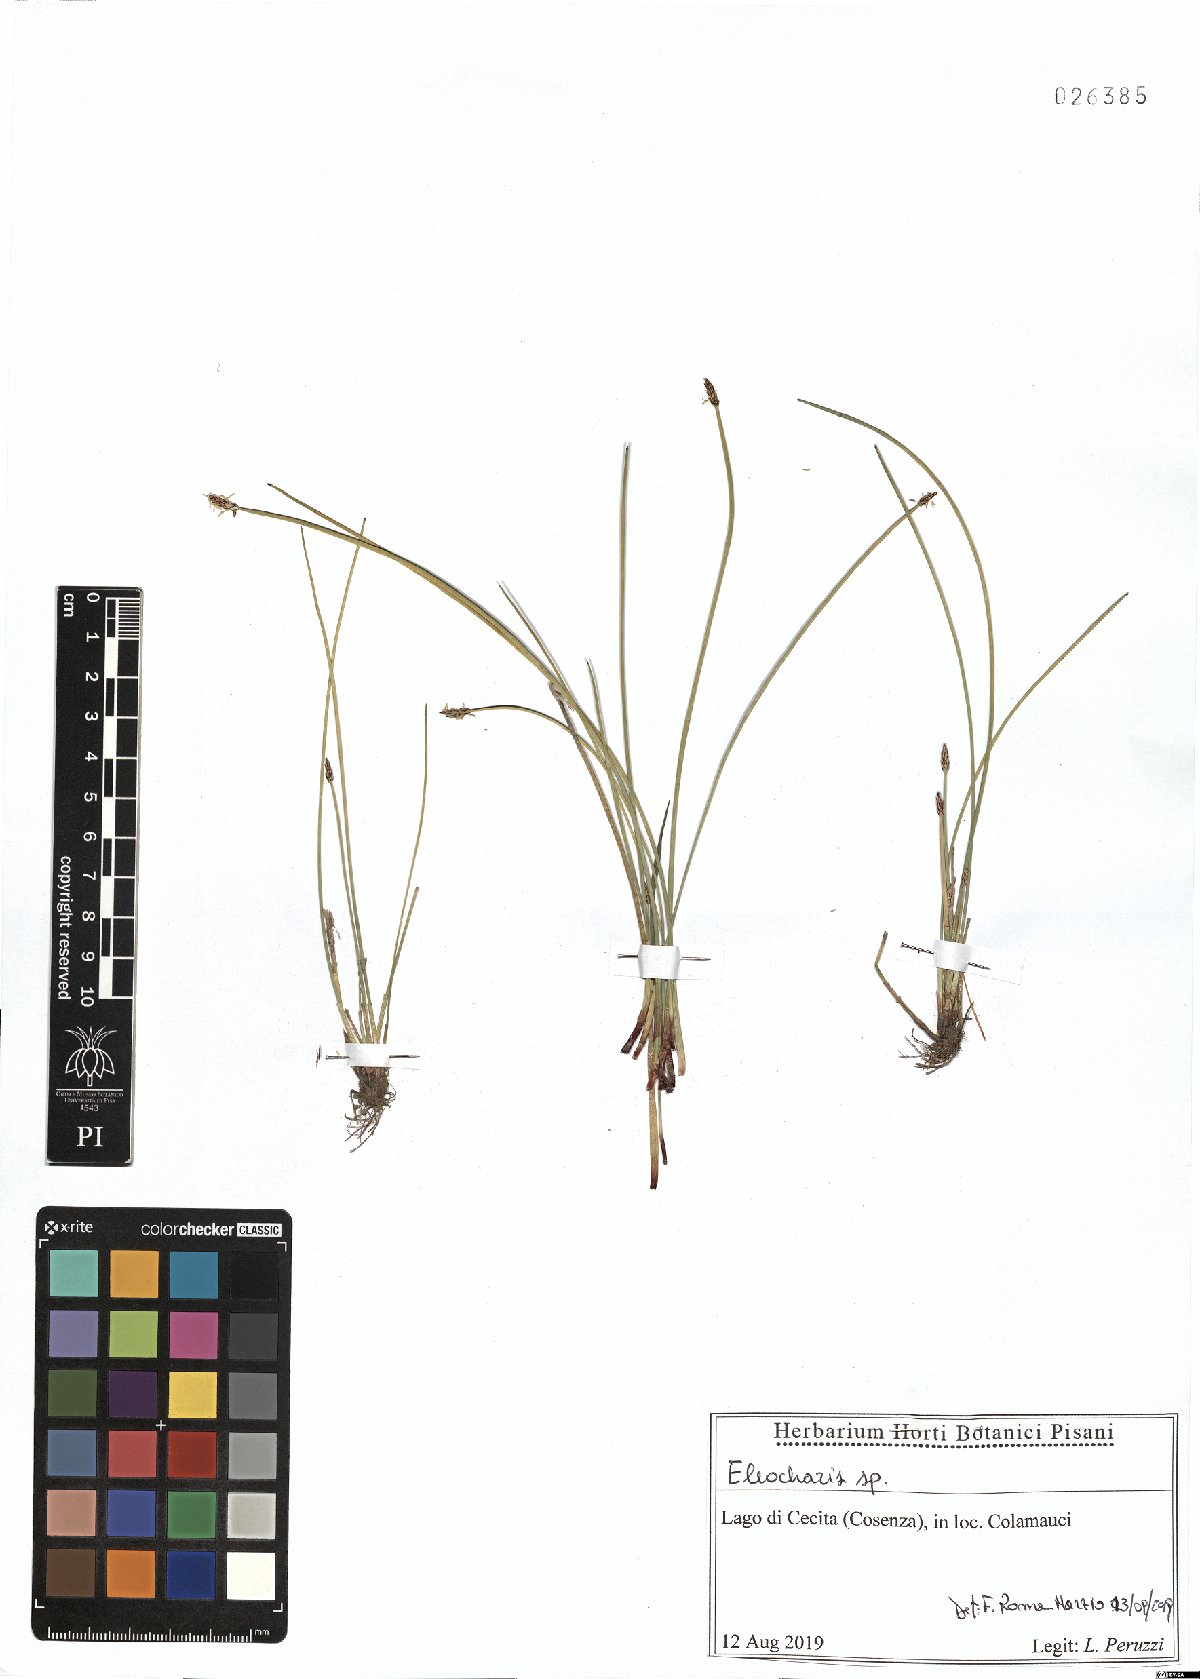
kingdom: Plantae
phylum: Tracheophyta
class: Liliopsida
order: Poales
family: Cyperaceae
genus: Eleocharis
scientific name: Eleocharis
